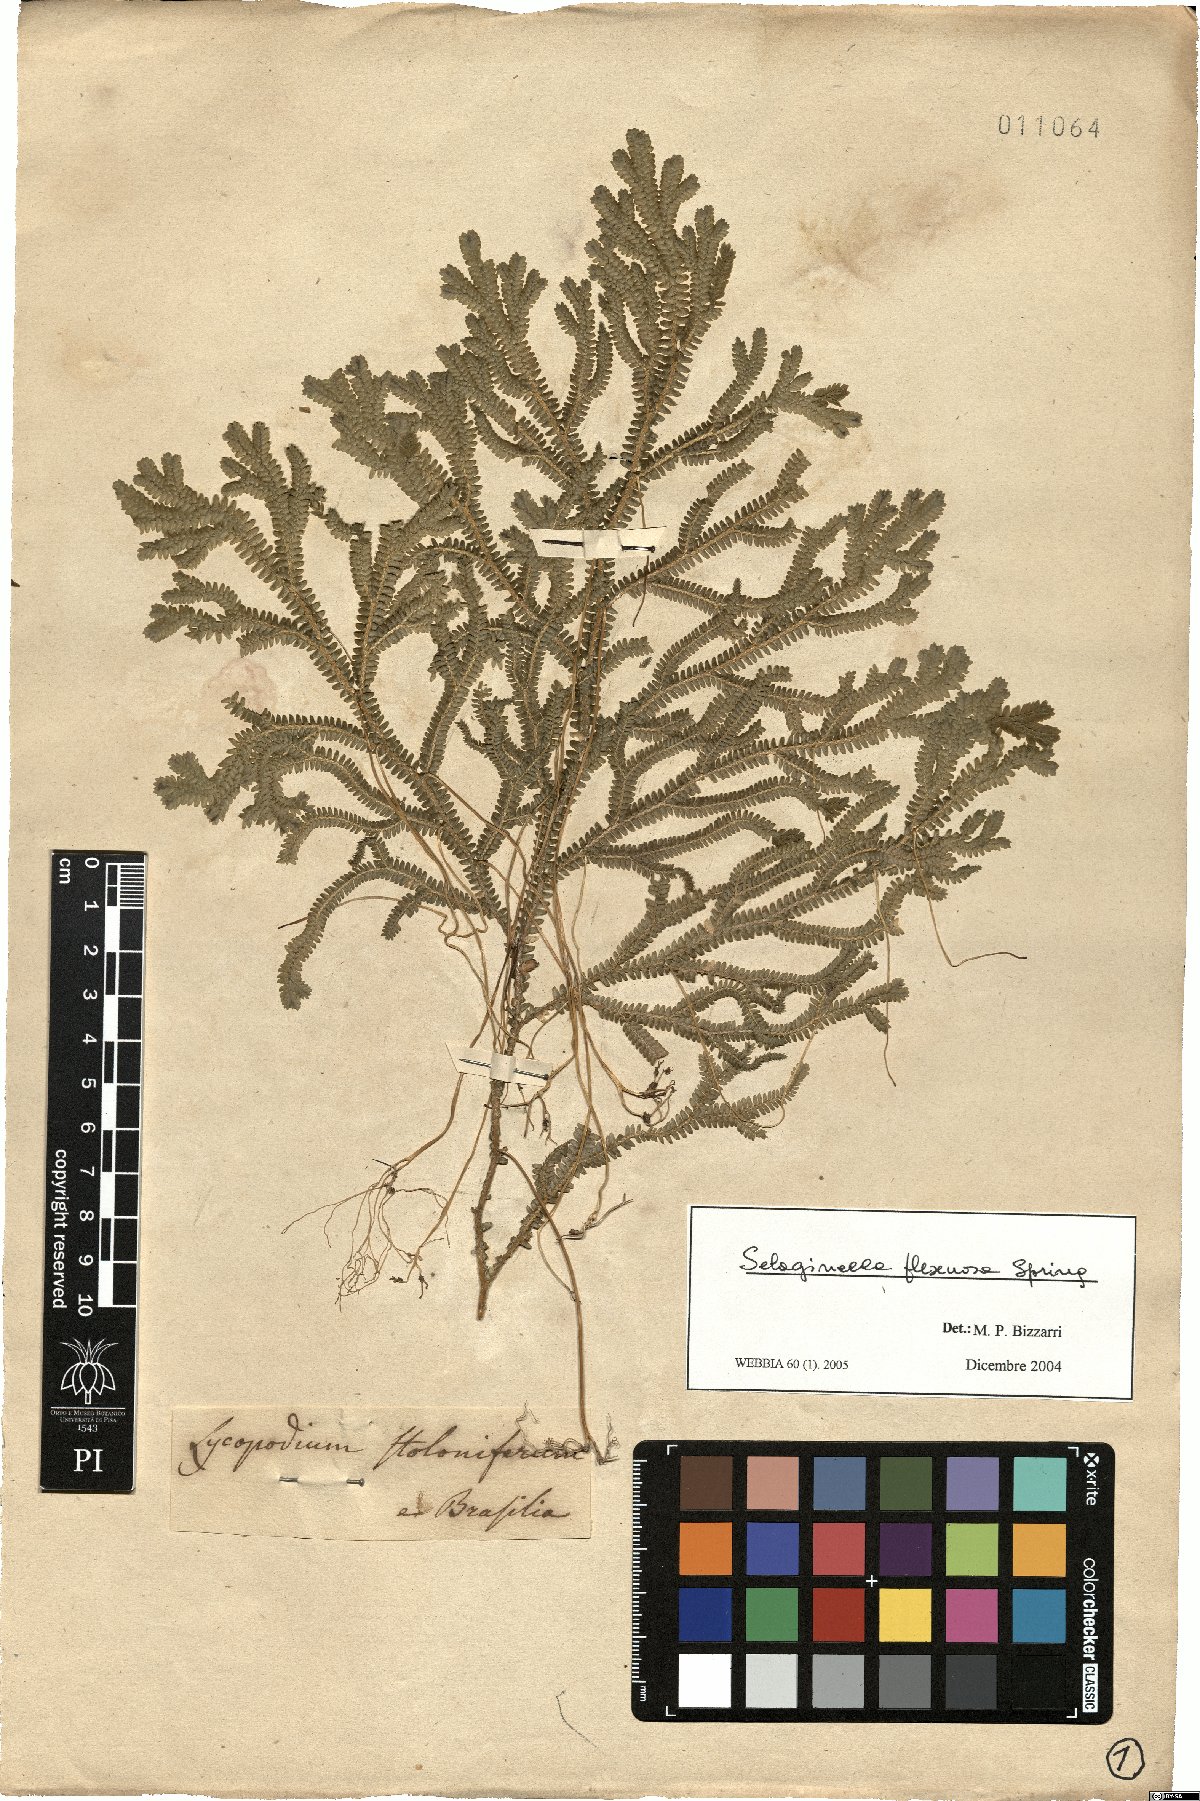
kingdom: Plantae
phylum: Tracheophyta
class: Lycopodiopsida
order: Selaginellales
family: Selaginellaceae
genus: Selaginella
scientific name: Selaginella flexuosa
